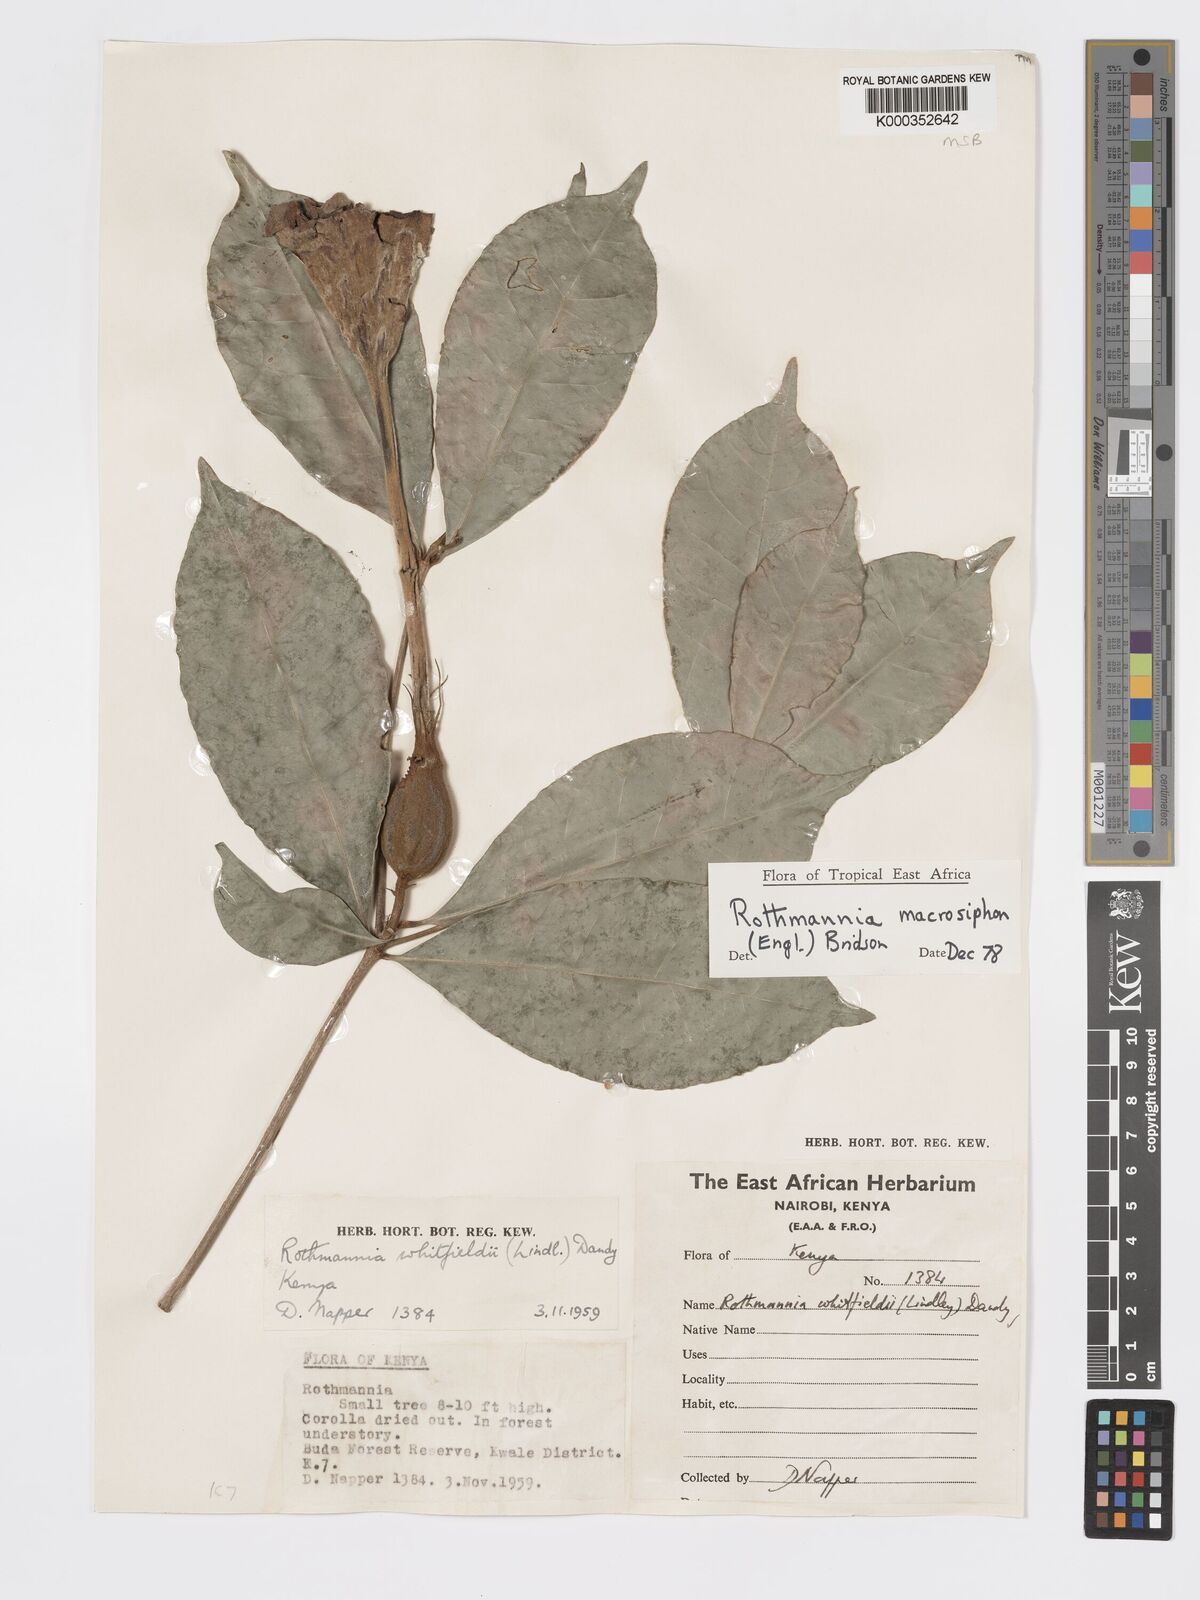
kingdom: Plantae
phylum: Tracheophyta
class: Magnoliopsida
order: Gentianales
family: Rubiaceae
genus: Rothmannia
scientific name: Rothmannia macrosiphon
